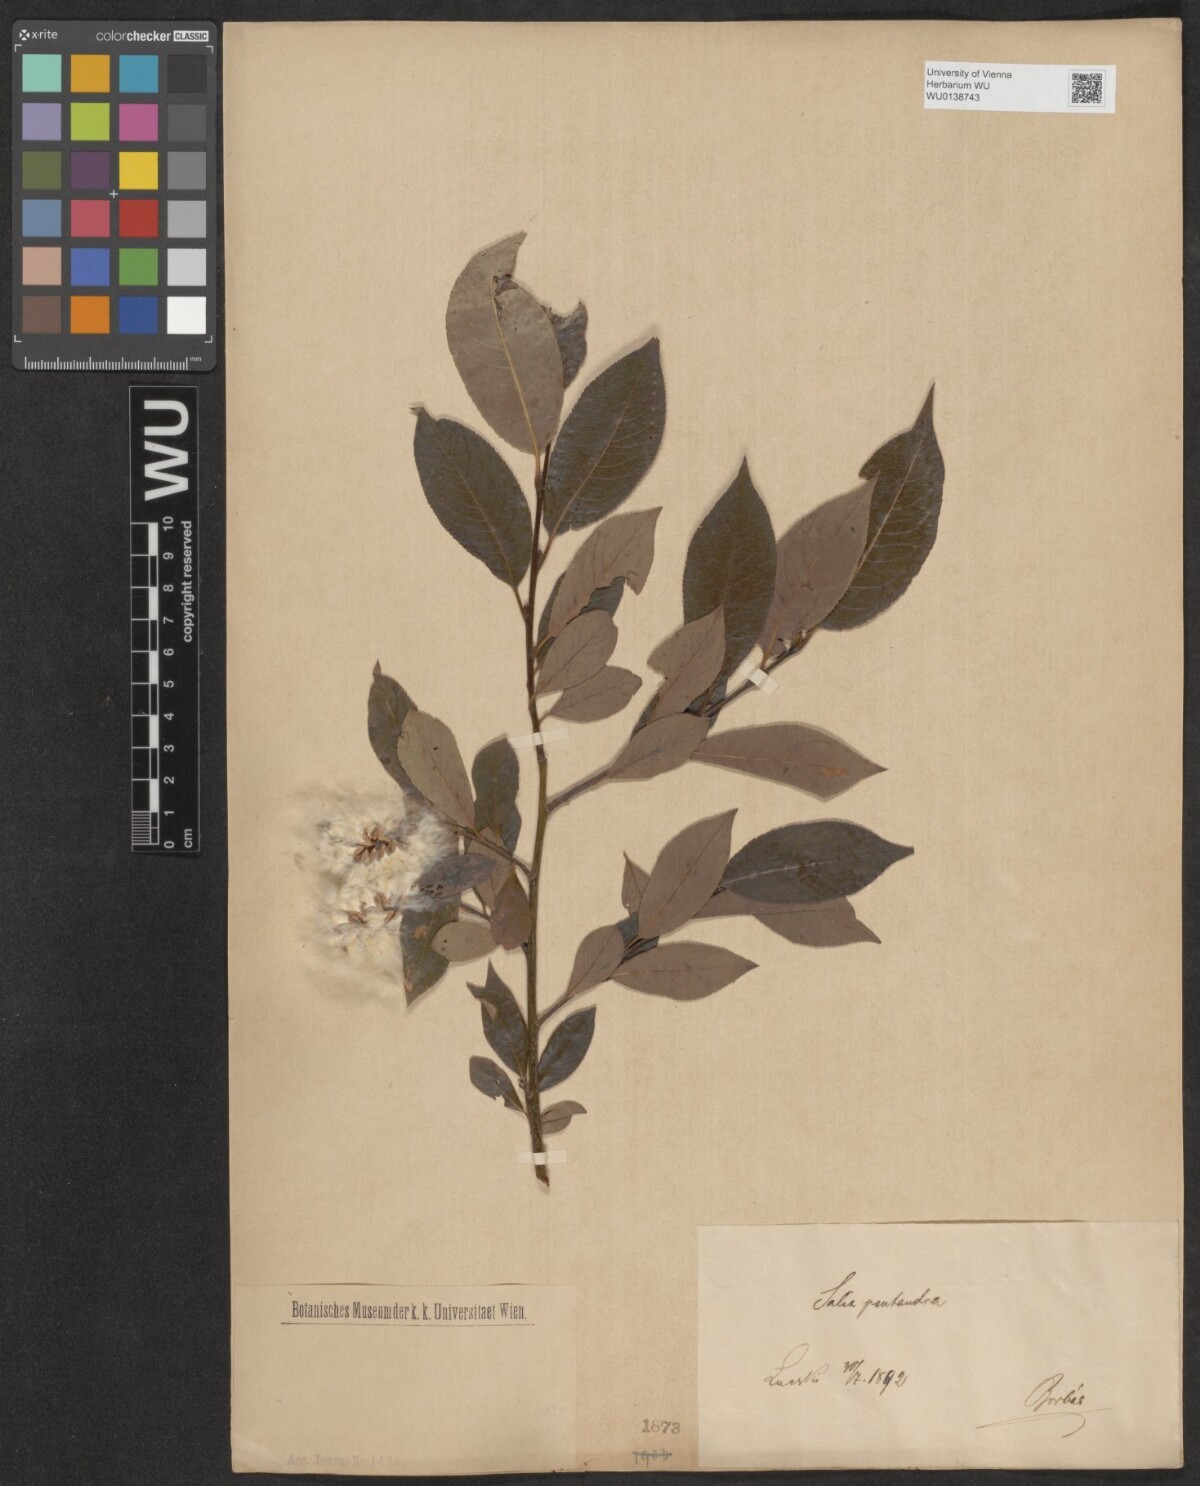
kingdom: Plantae
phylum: Tracheophyta
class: Magnoliopsida
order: Malpighiales
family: Salicaceae
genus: Salix
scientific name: Salix pentandra
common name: Bay willow
